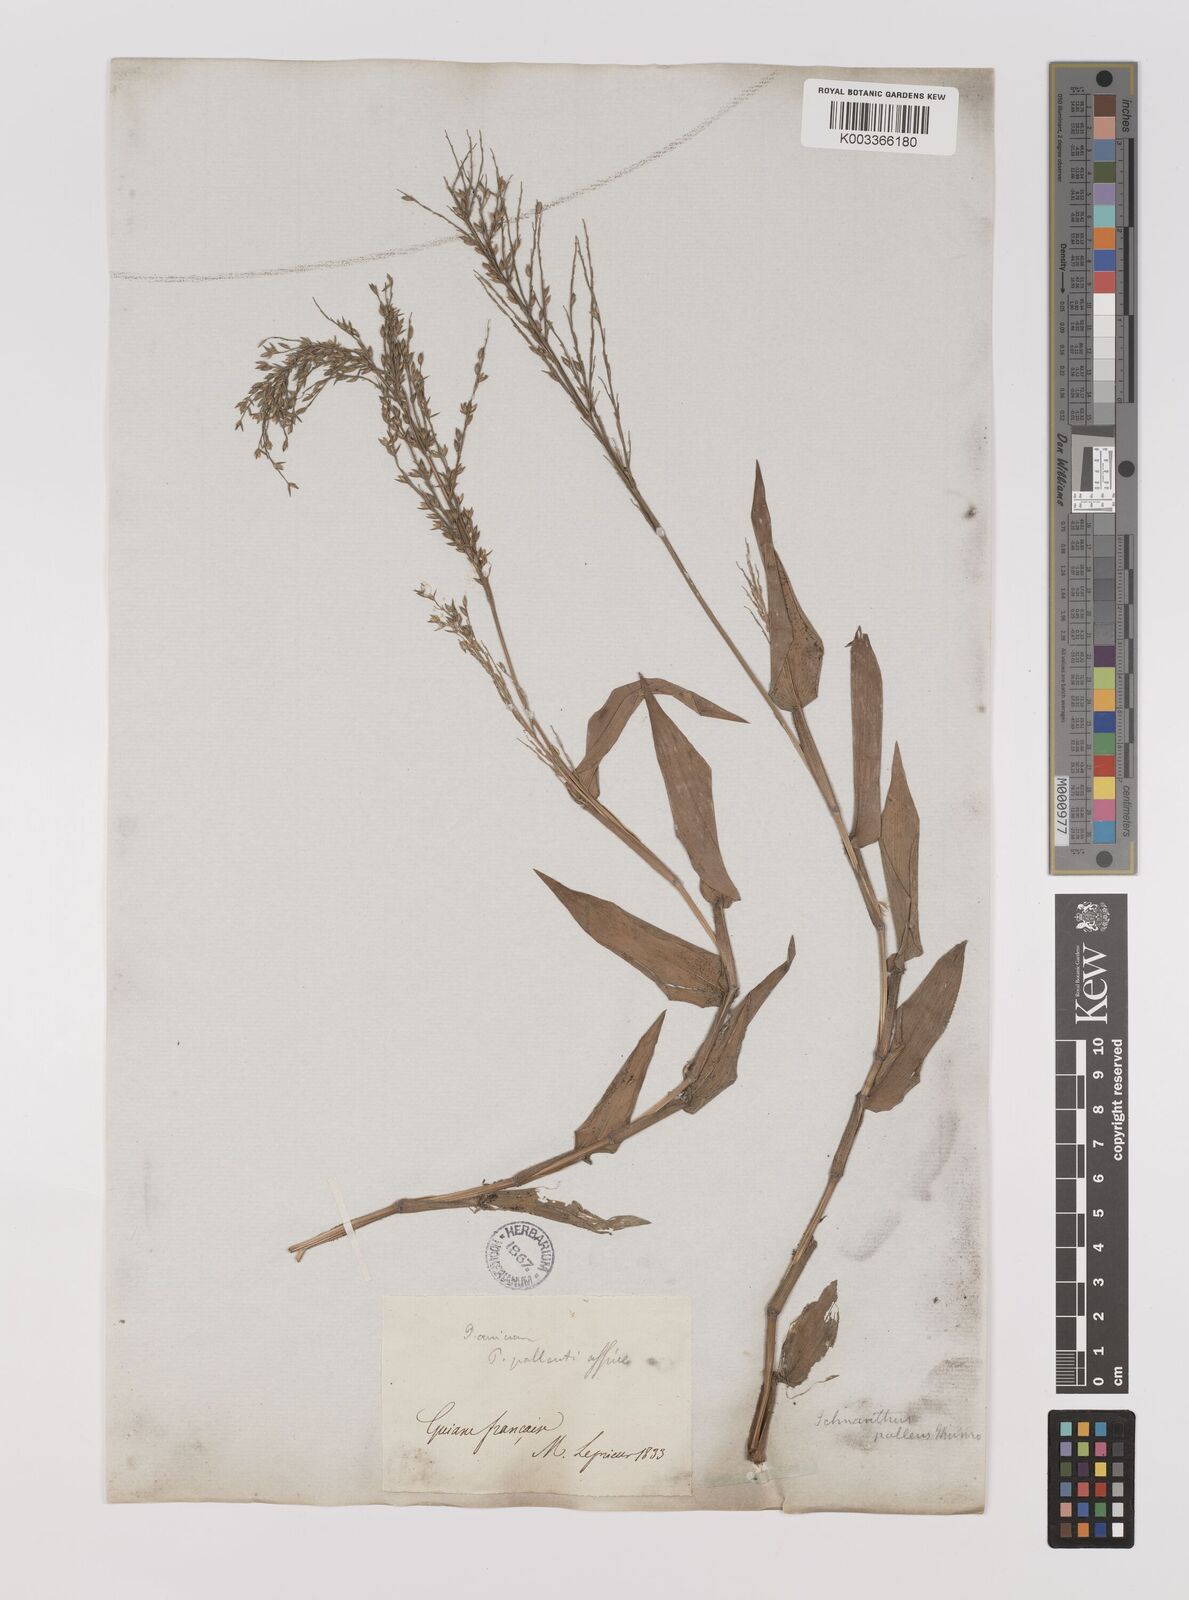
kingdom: Plantae
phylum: Tracheophyta
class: Liliopsida
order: Poales
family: Poaceae
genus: Ichnanthus
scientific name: Ichnanthus pallens
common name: Water grass
